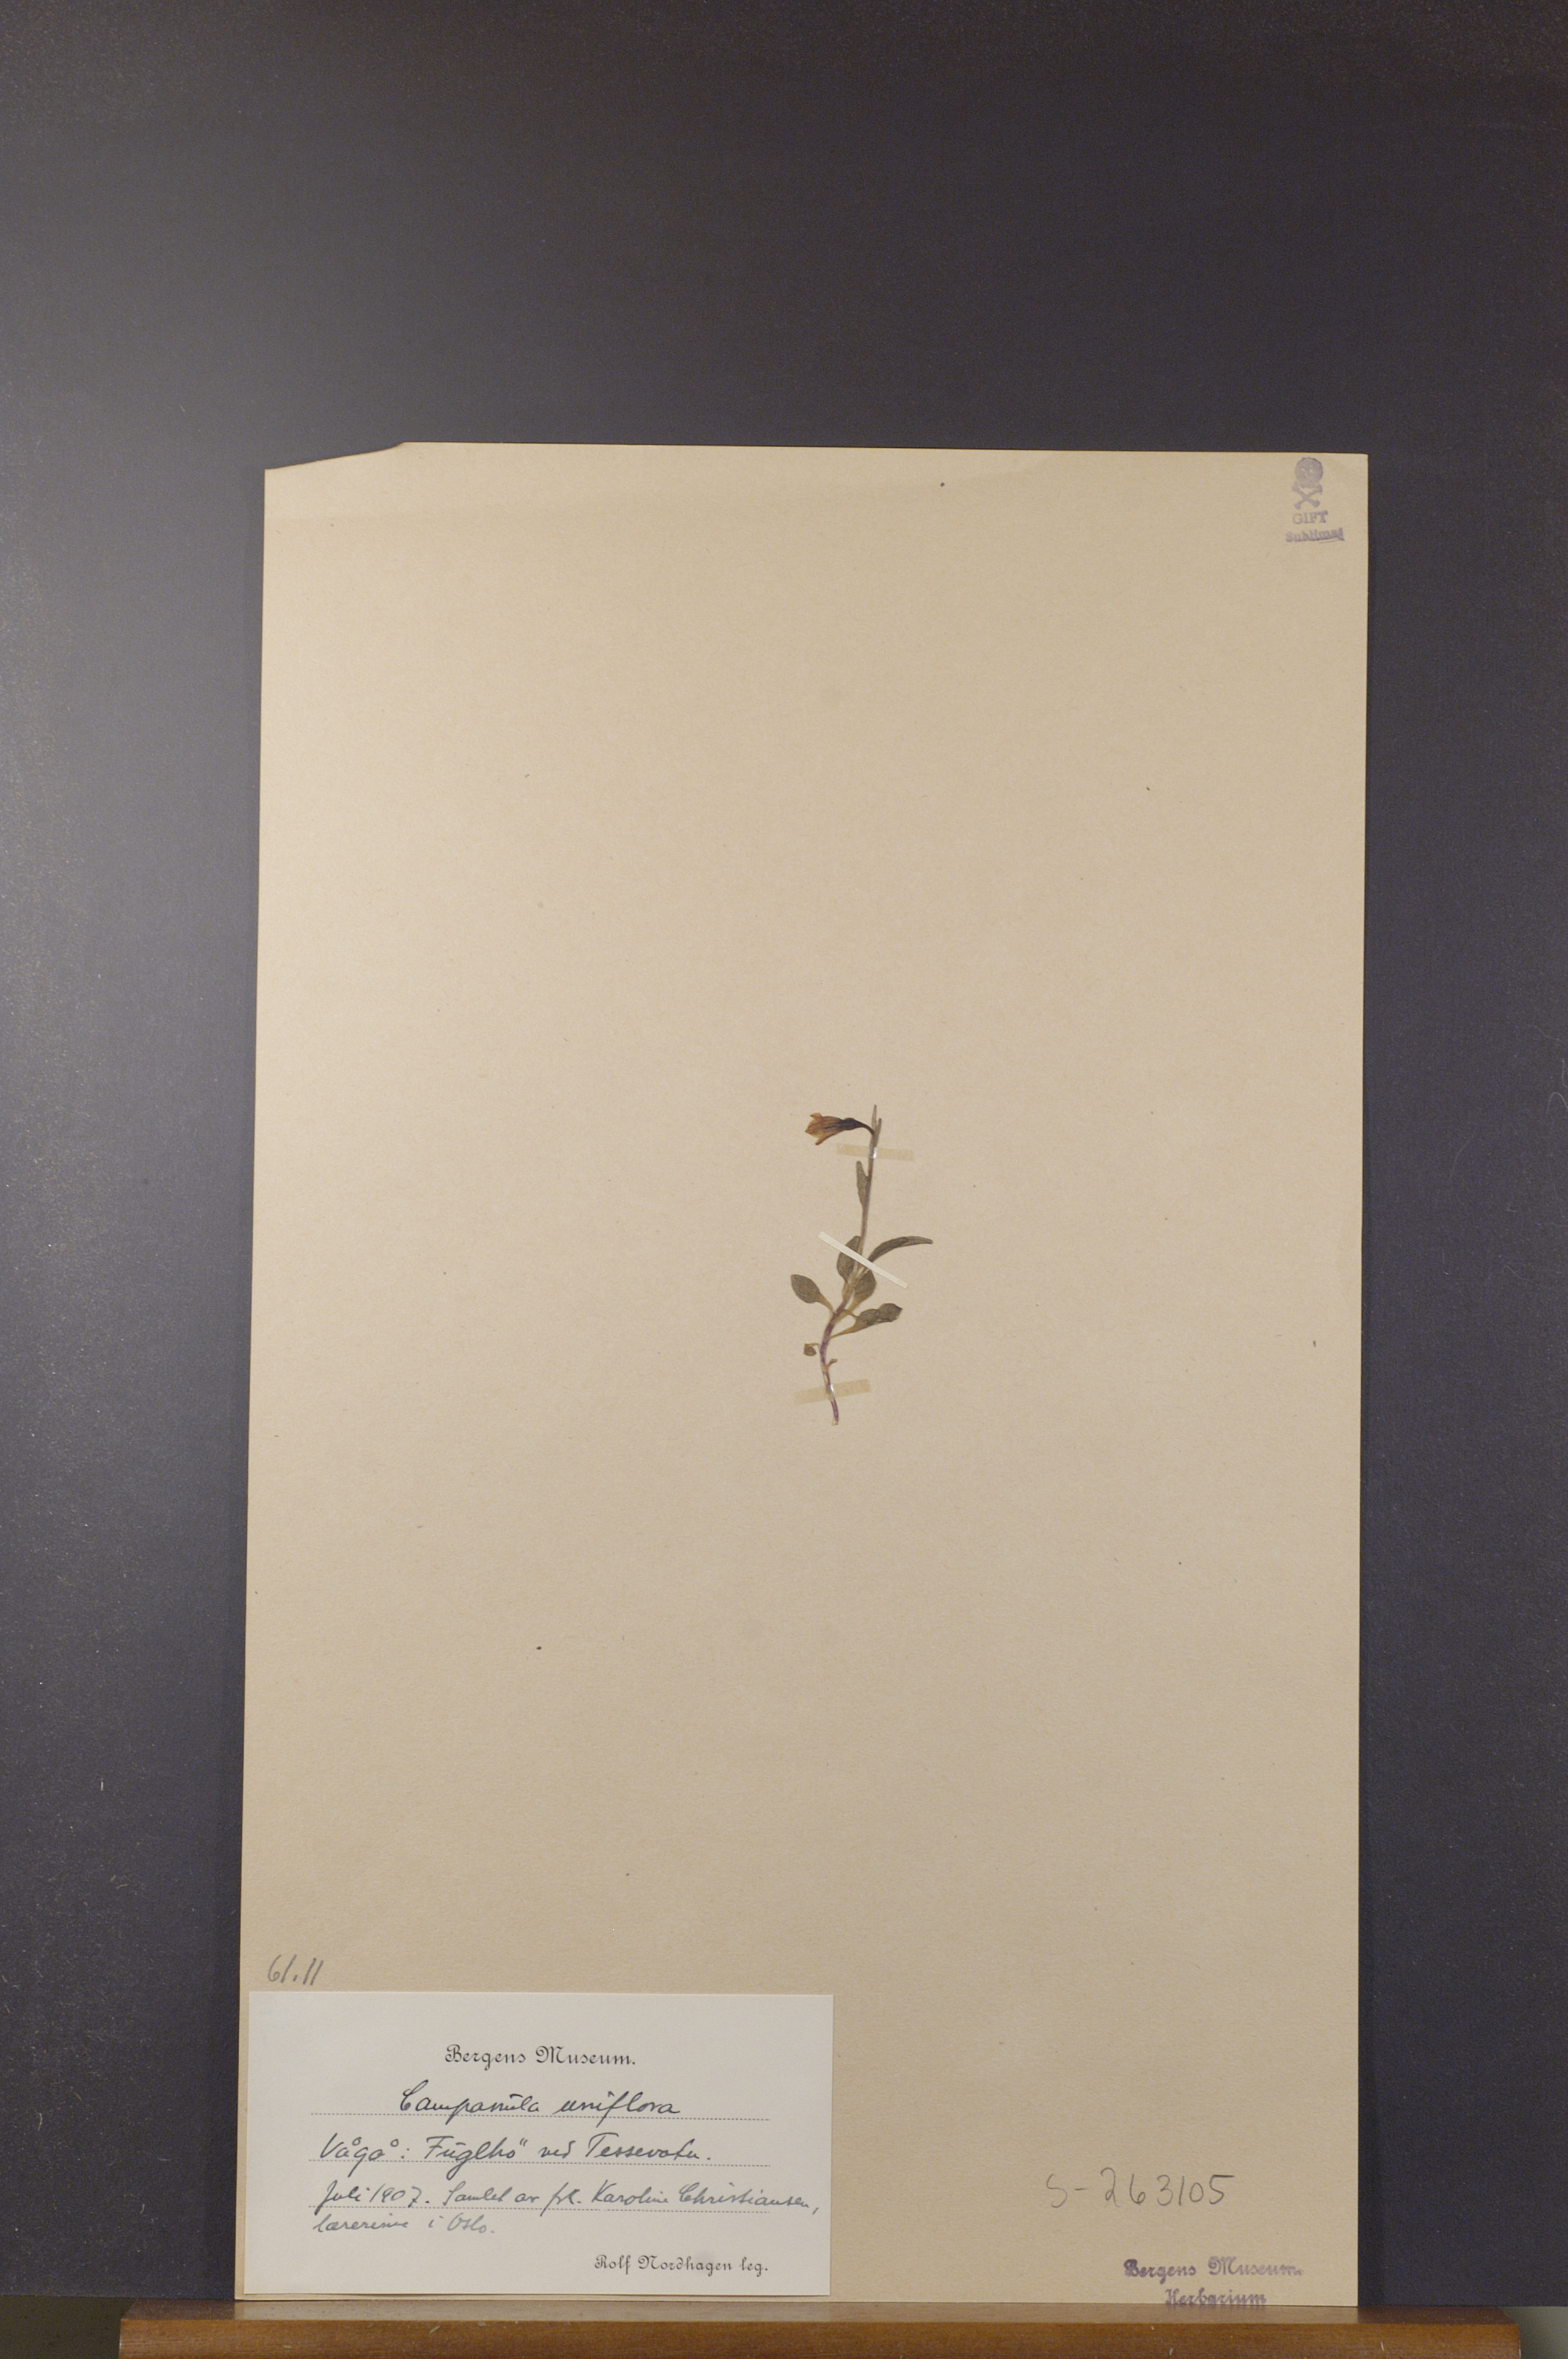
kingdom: Plantae
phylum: Tracheophyta
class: Magnoliopsida
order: Asterales
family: Campanulaceae
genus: Melanocalyx
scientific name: Melanocalyx uniflora
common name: Alpine harebell
